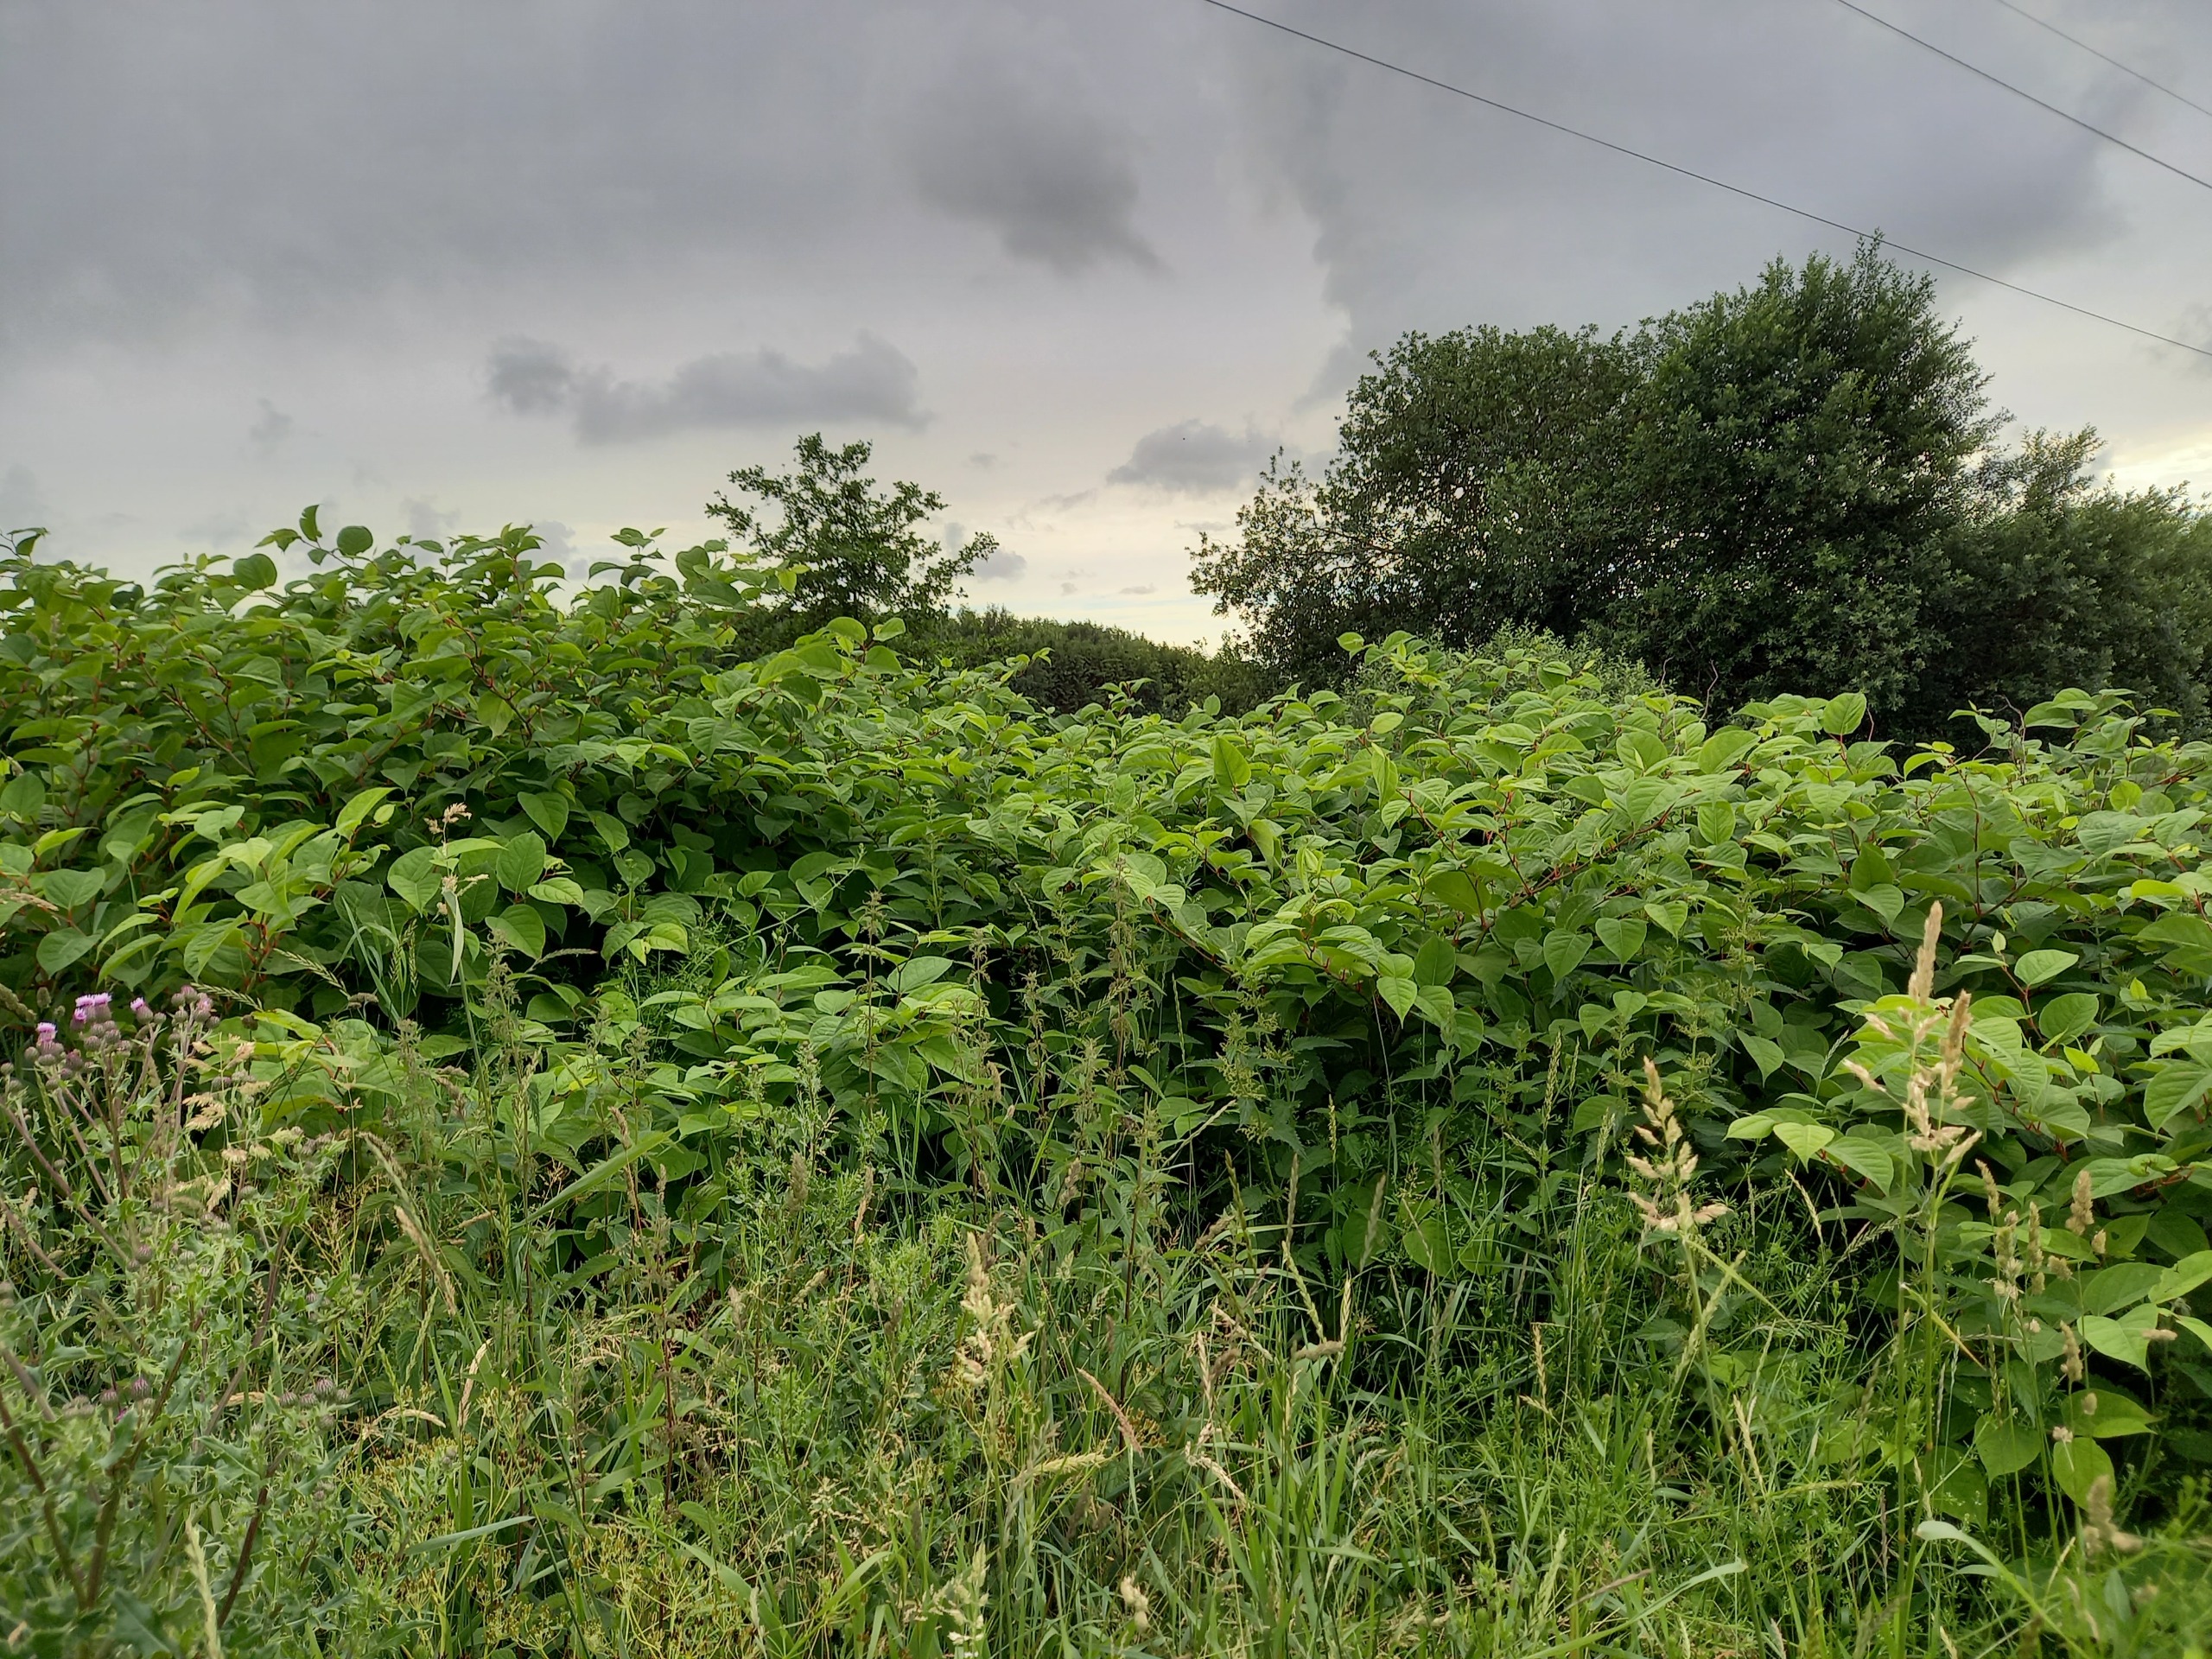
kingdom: Plantae
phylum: Tracheophyta
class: Magnoliopsida
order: Caryophyllales
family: Polygonaceae
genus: Reynoutria
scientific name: Reynoutria japonica
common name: Japan-pileurt
